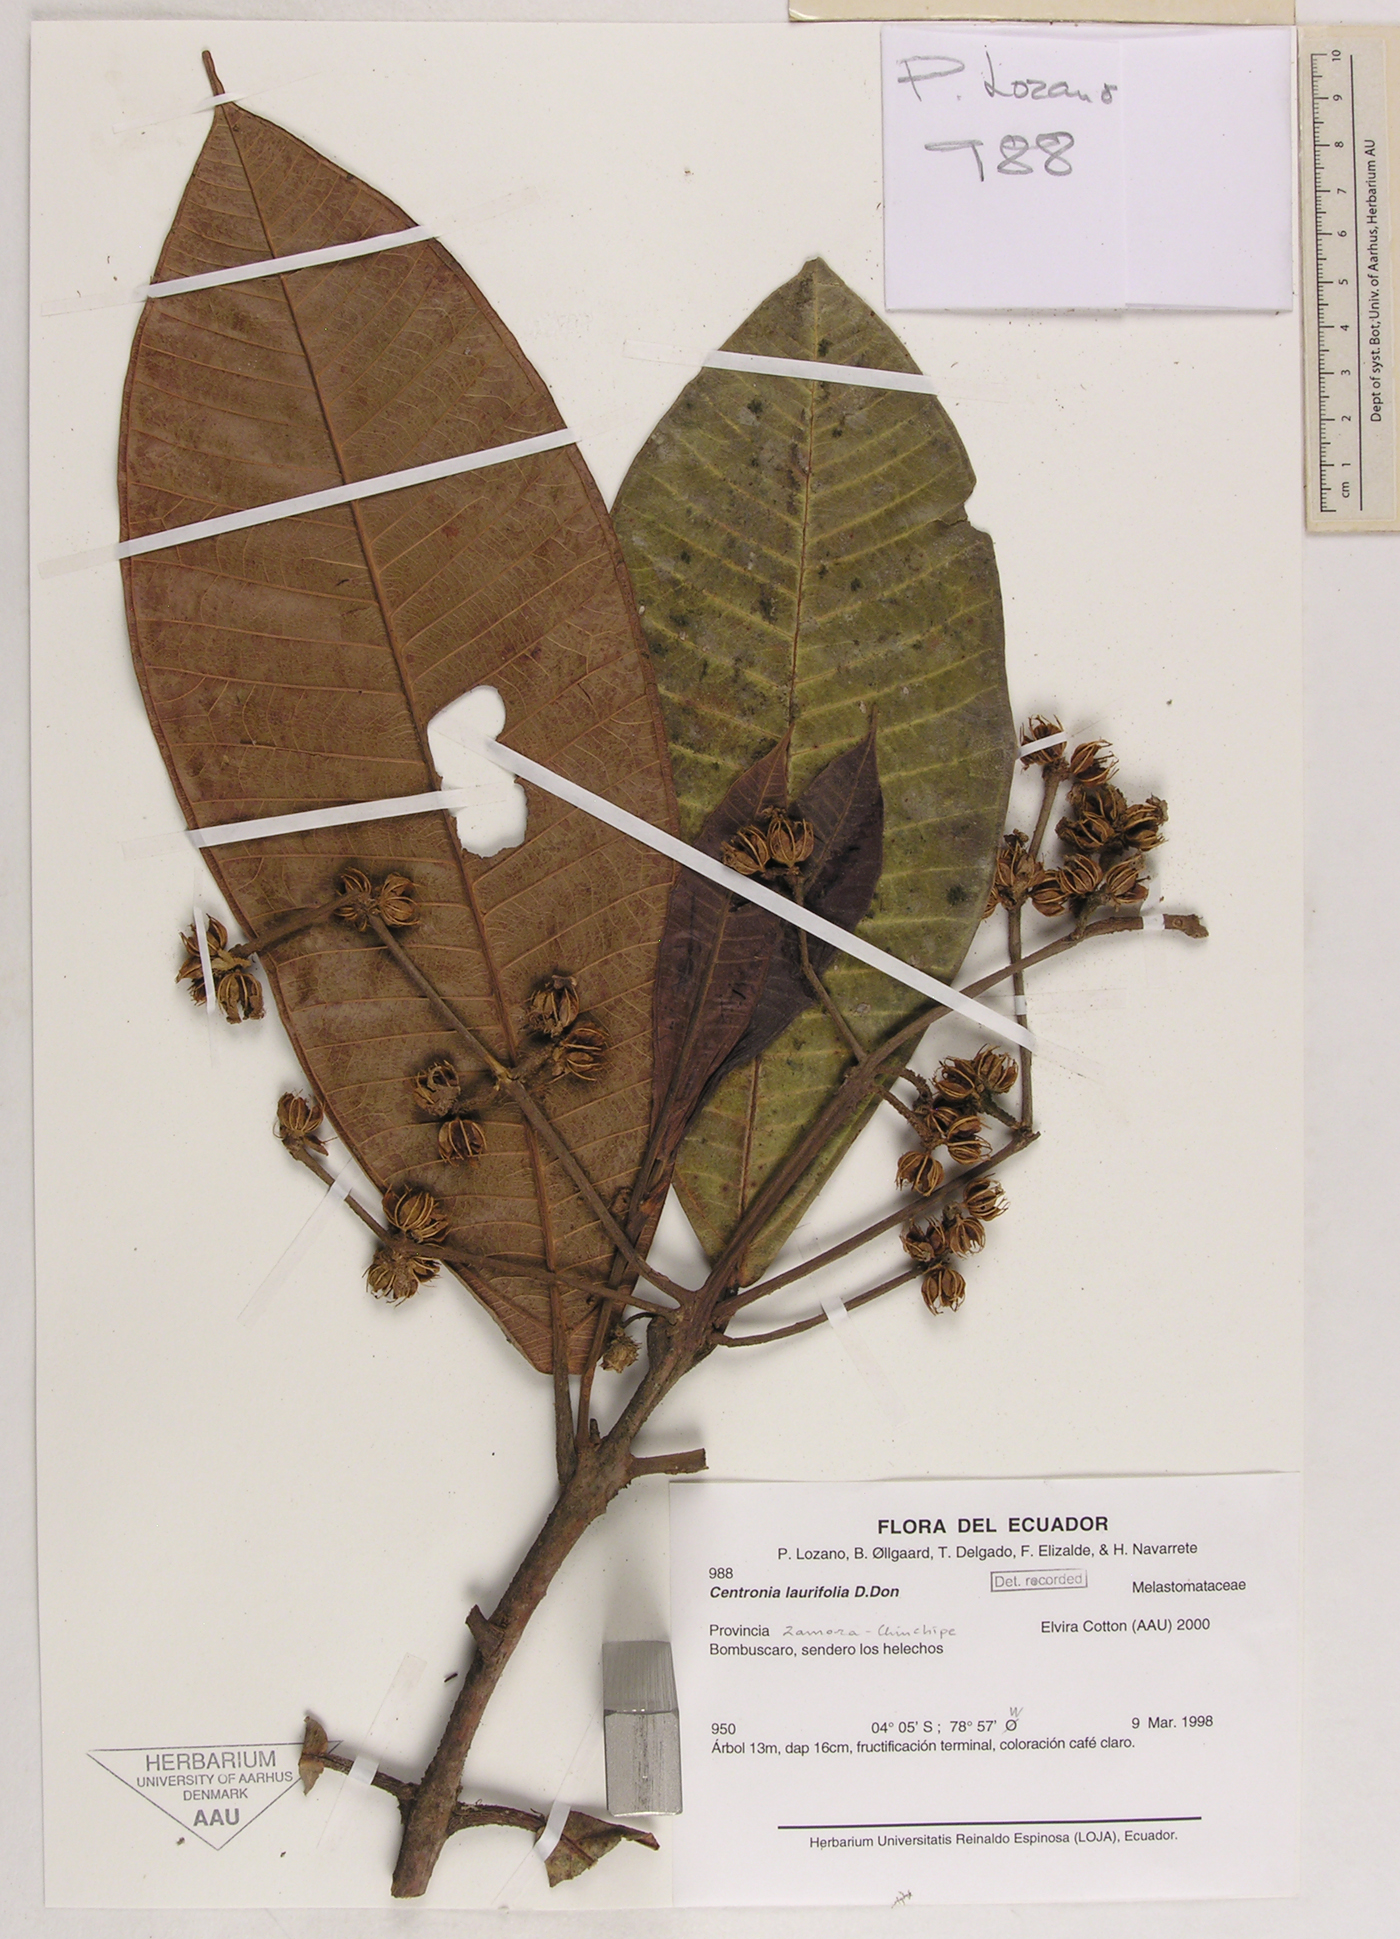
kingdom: Plantae
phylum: Tracheophyta
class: Magnoliopsida
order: Myrtales
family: Melastomataceae
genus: Centronia
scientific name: Centronia laurifolia
